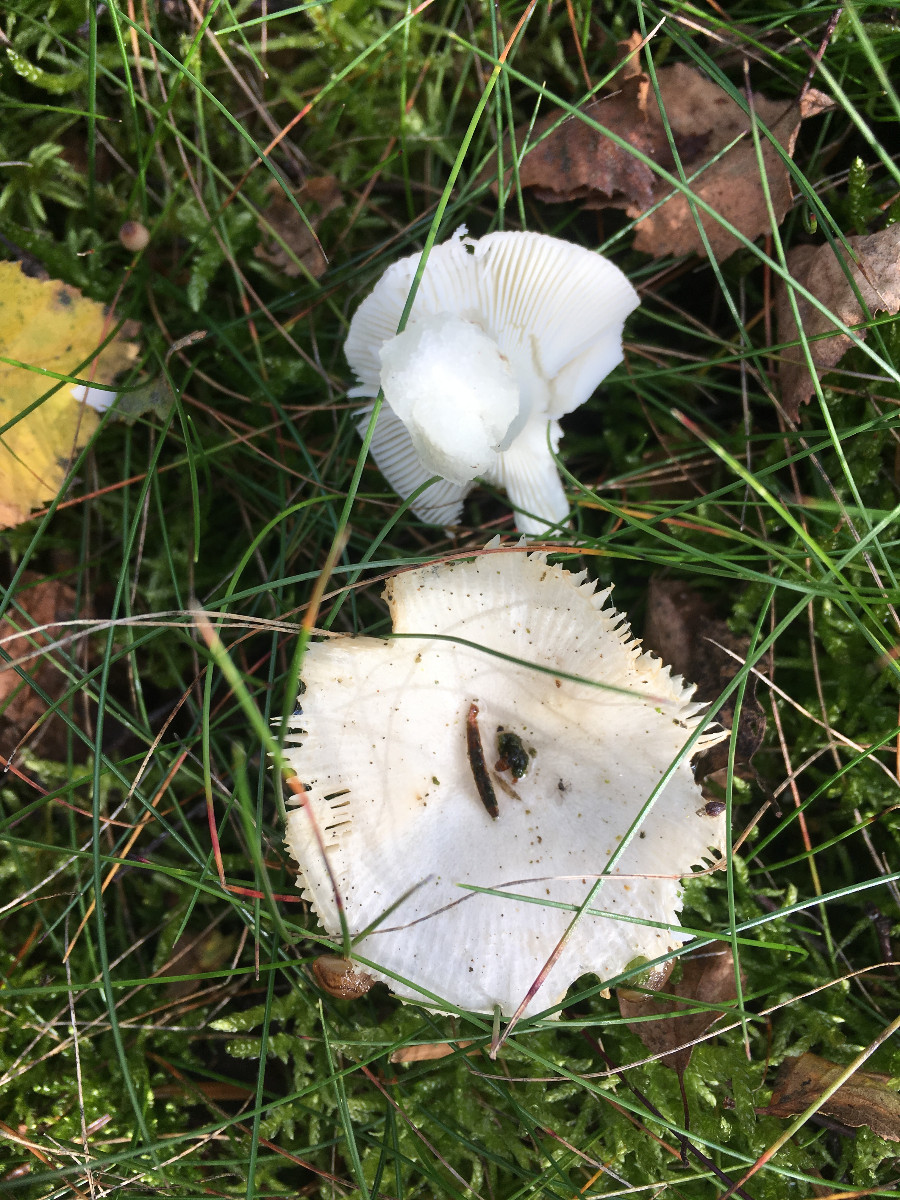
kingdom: Fungi
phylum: Basidiomycota
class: Agaricomycetes
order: Russulales
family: Russulaceae
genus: Russula
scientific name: Russula
